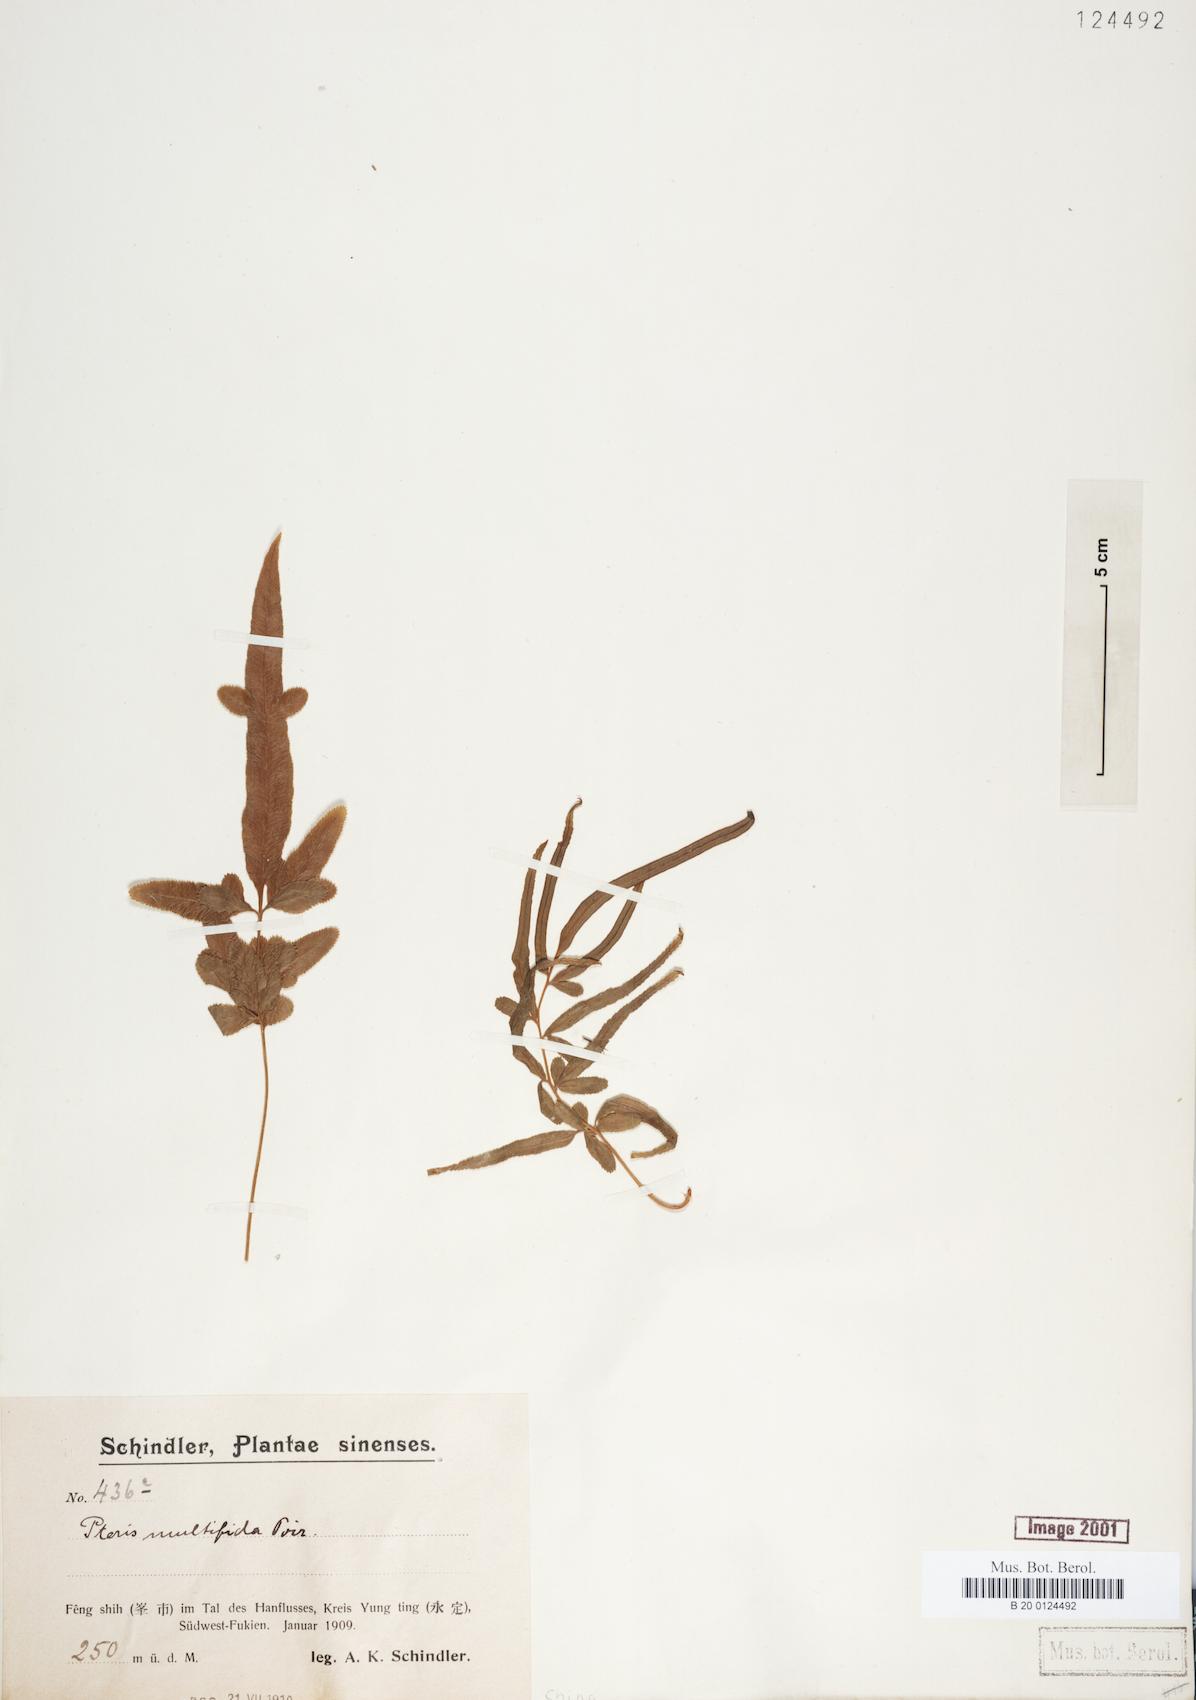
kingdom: Plantae
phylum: Tracheophyta
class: Polypodiopsida
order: Polypodiales
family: Pteridaceae
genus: Pteris
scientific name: Pteris multifida
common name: Spider brake
